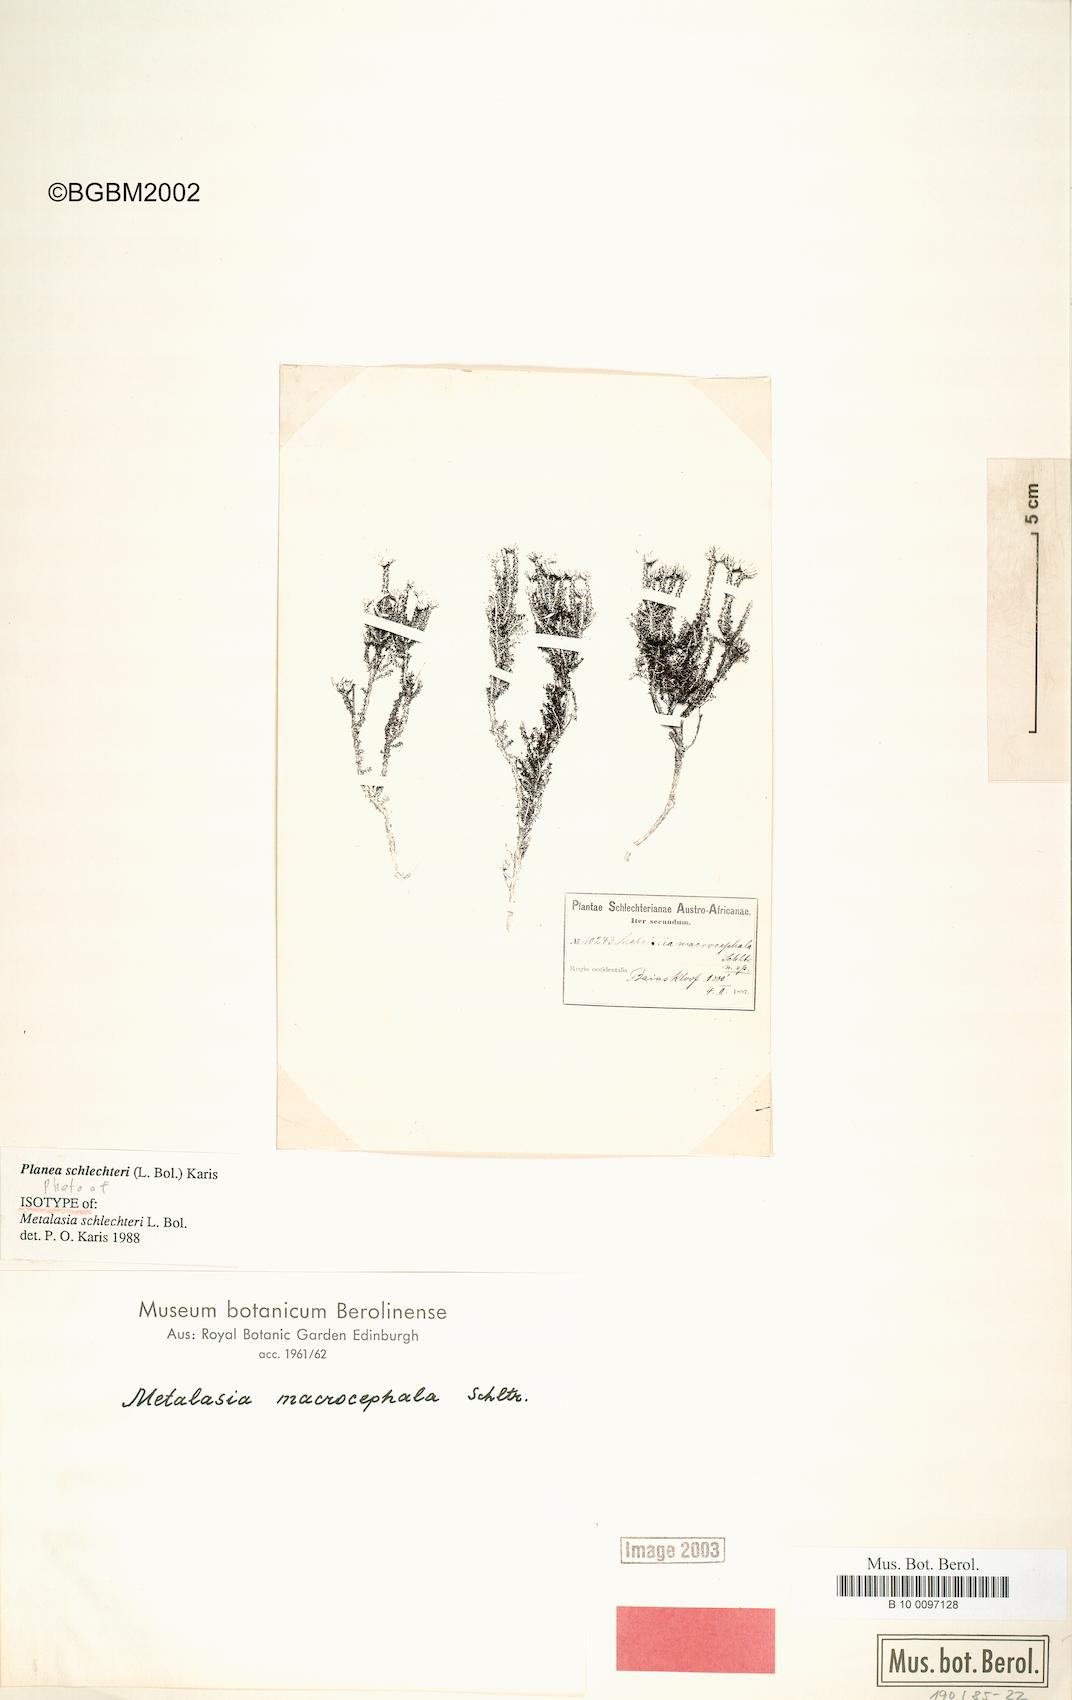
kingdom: Plantae
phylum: Tracheophyta
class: Magnoliopsida
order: Asterales
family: Asteraceae
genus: Planea
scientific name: Planea schlechteri
